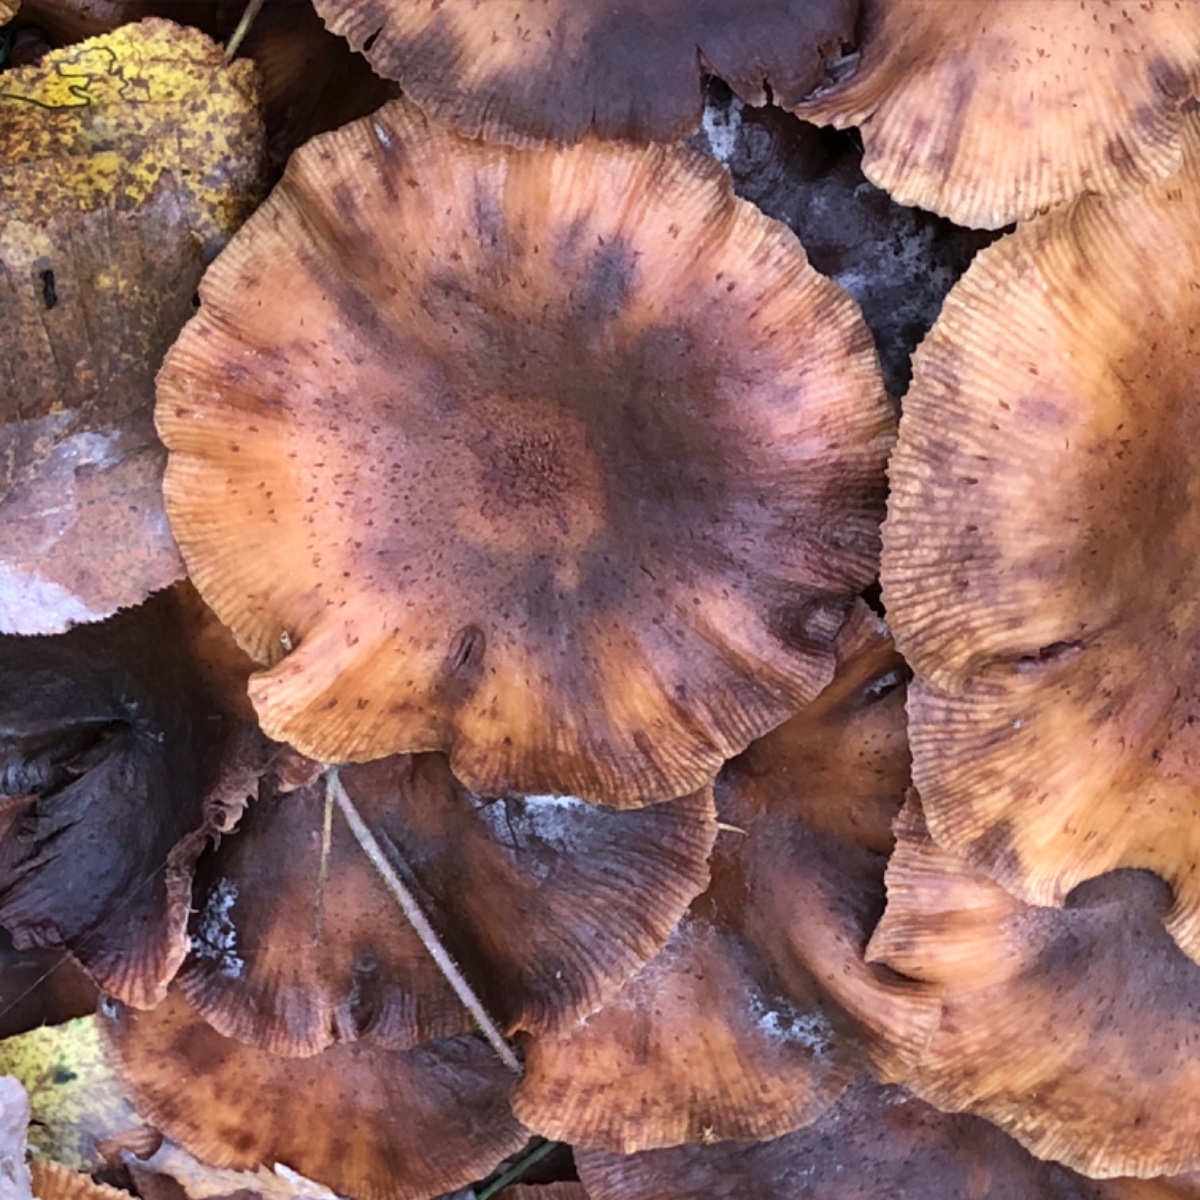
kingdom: Fungi
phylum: Basidiomycota
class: Agaricomycetes
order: Agaricales
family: Physalacriaceae
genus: Armillaria
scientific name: Armillaria
